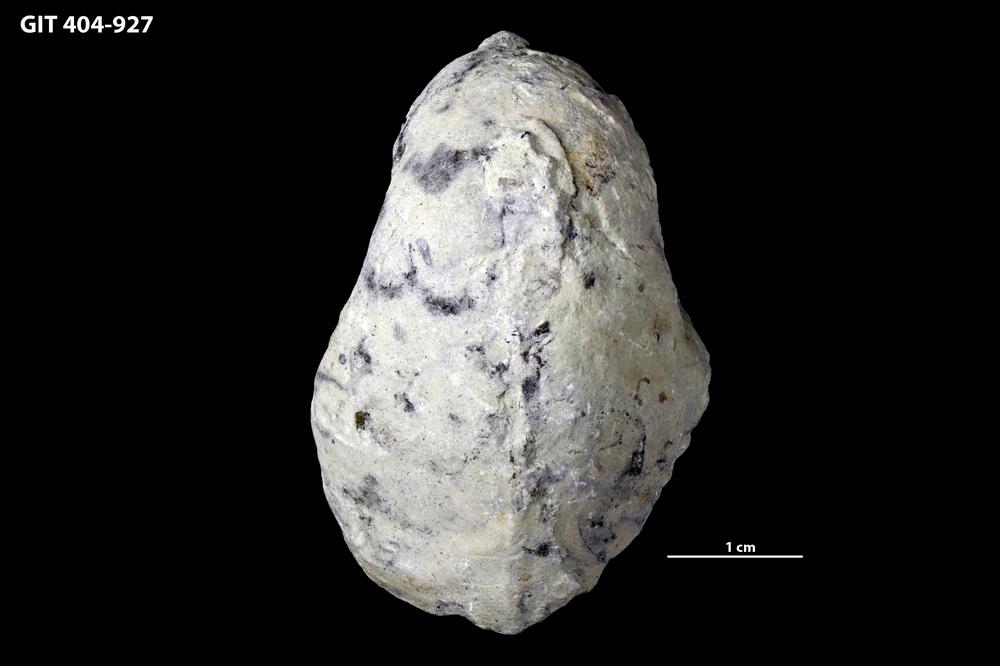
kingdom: Animalia
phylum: Mollusca
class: Gastropoda
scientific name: Gastropoda
